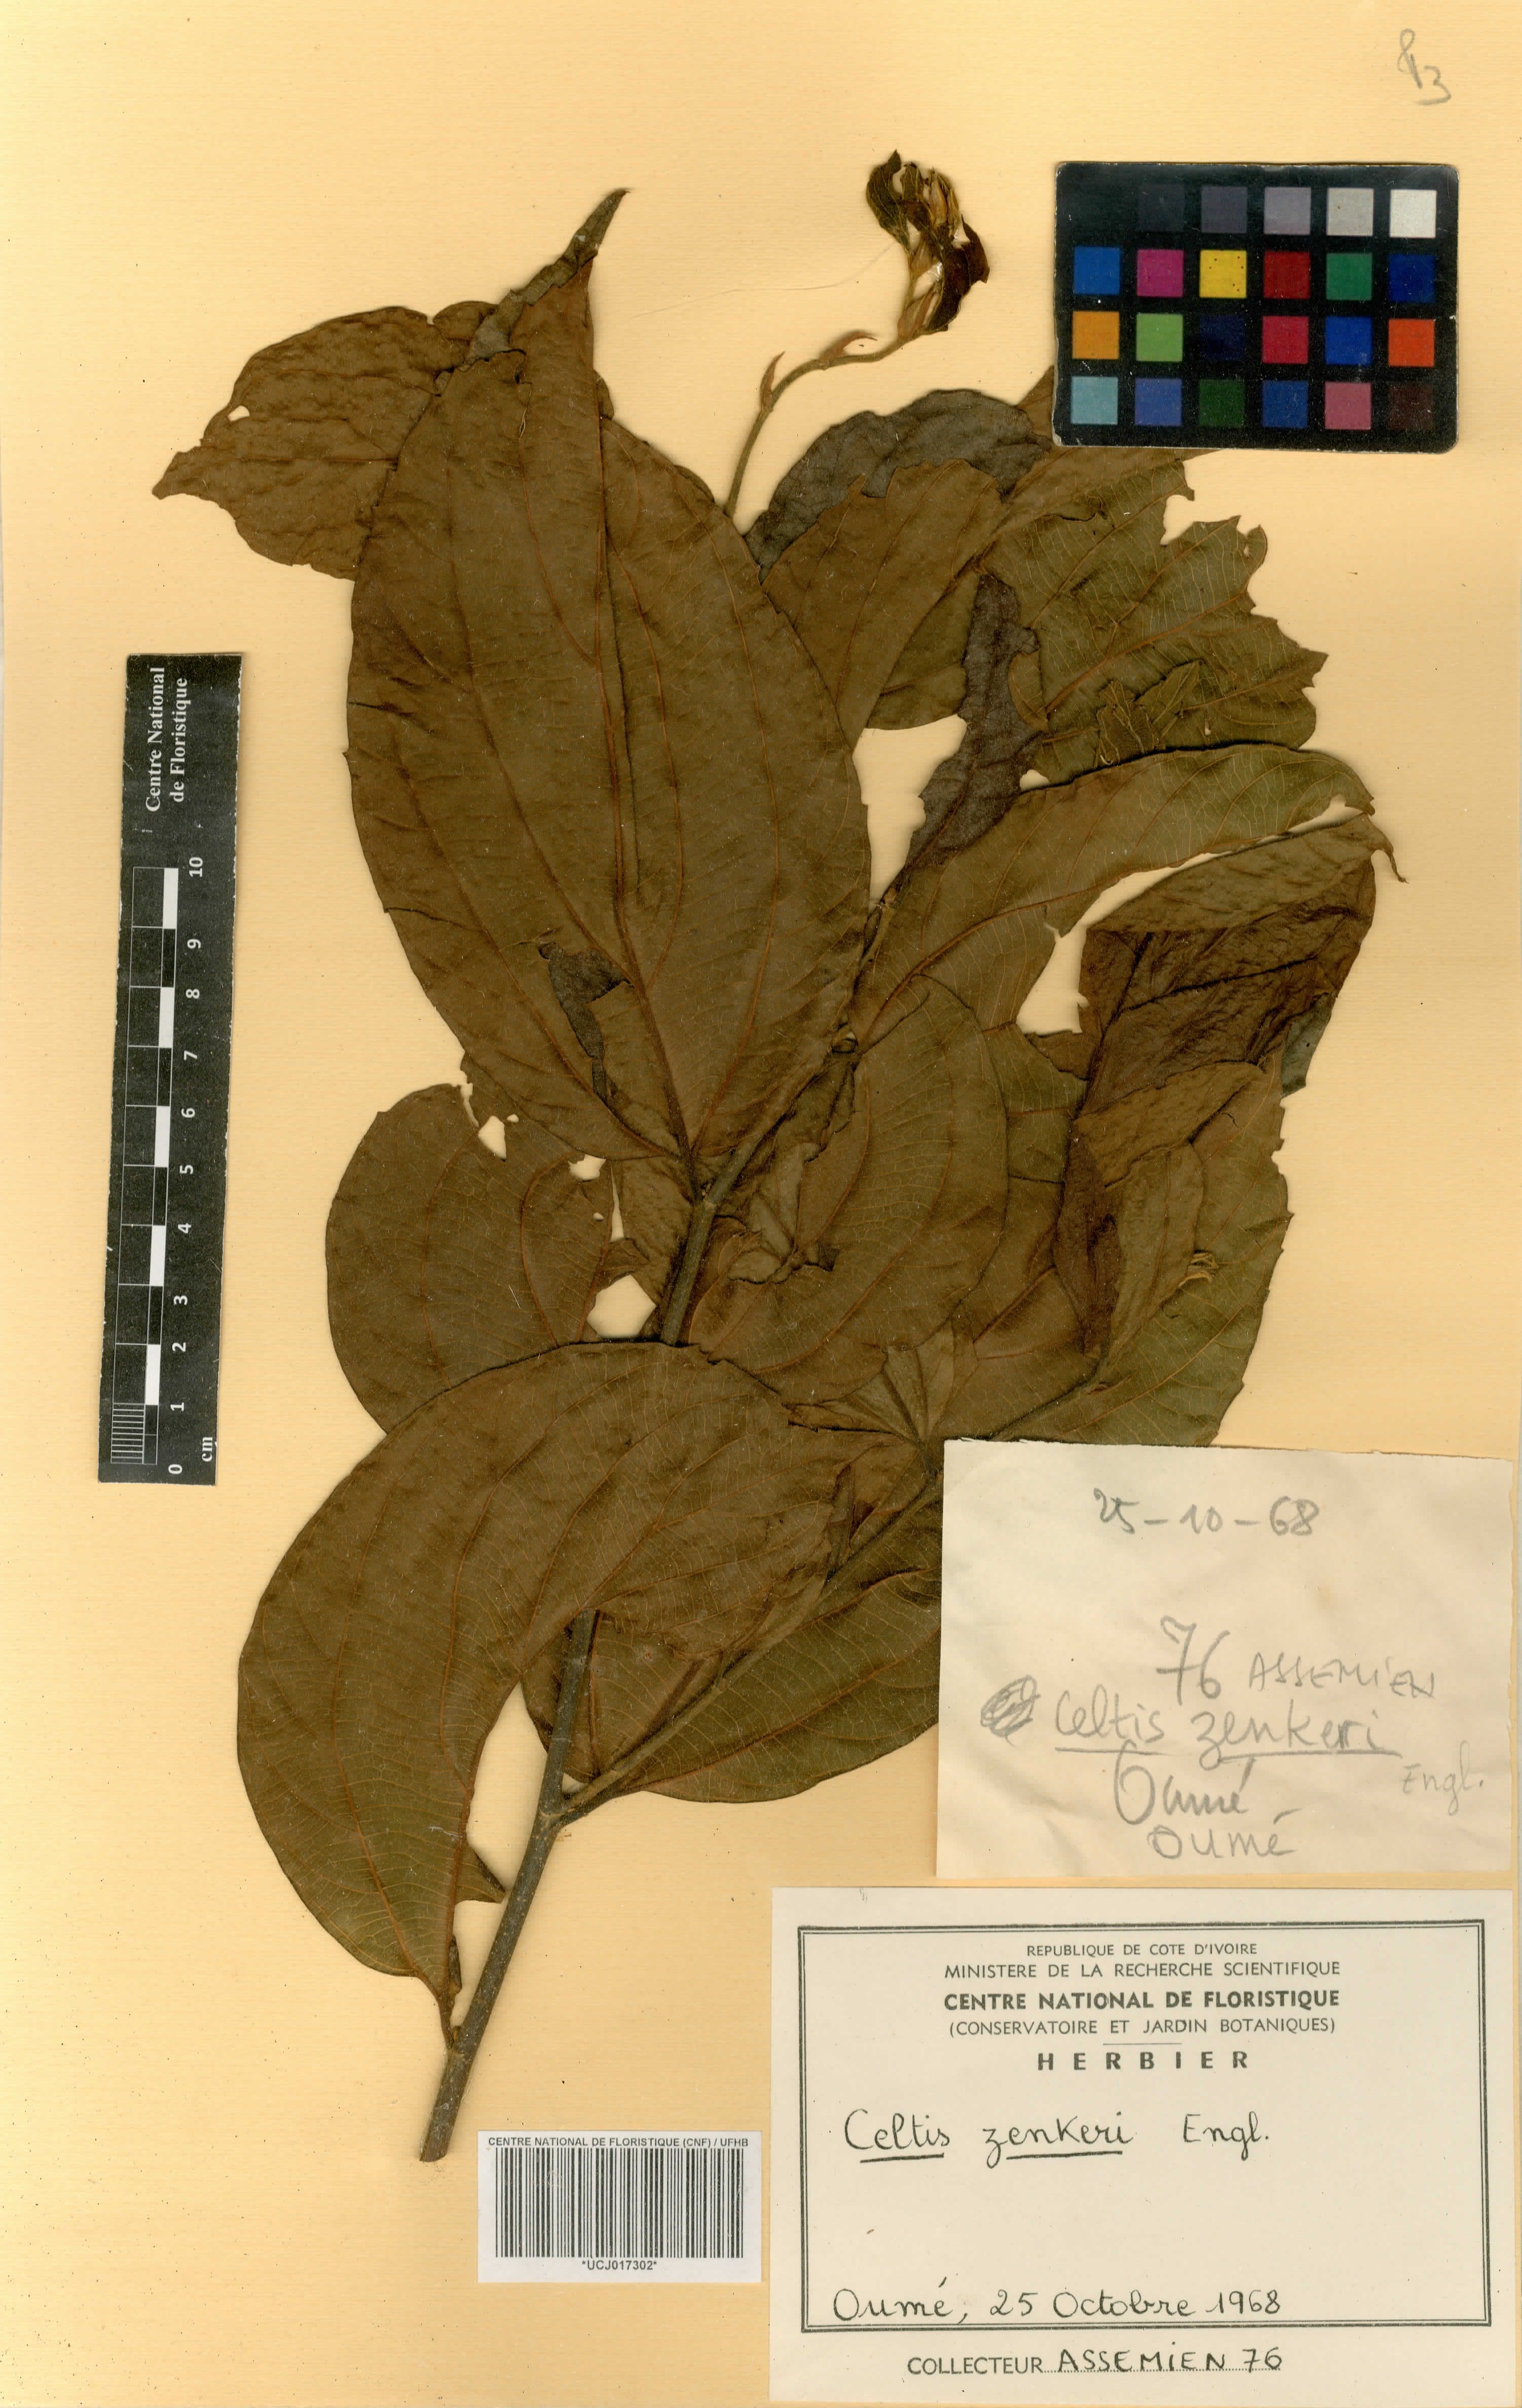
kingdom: Plantae
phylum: Tracheophyta
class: Magnoliopsida
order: Rosales
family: Cannabaceae
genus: Celtis
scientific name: Celtis zenkeri
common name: African celtis
